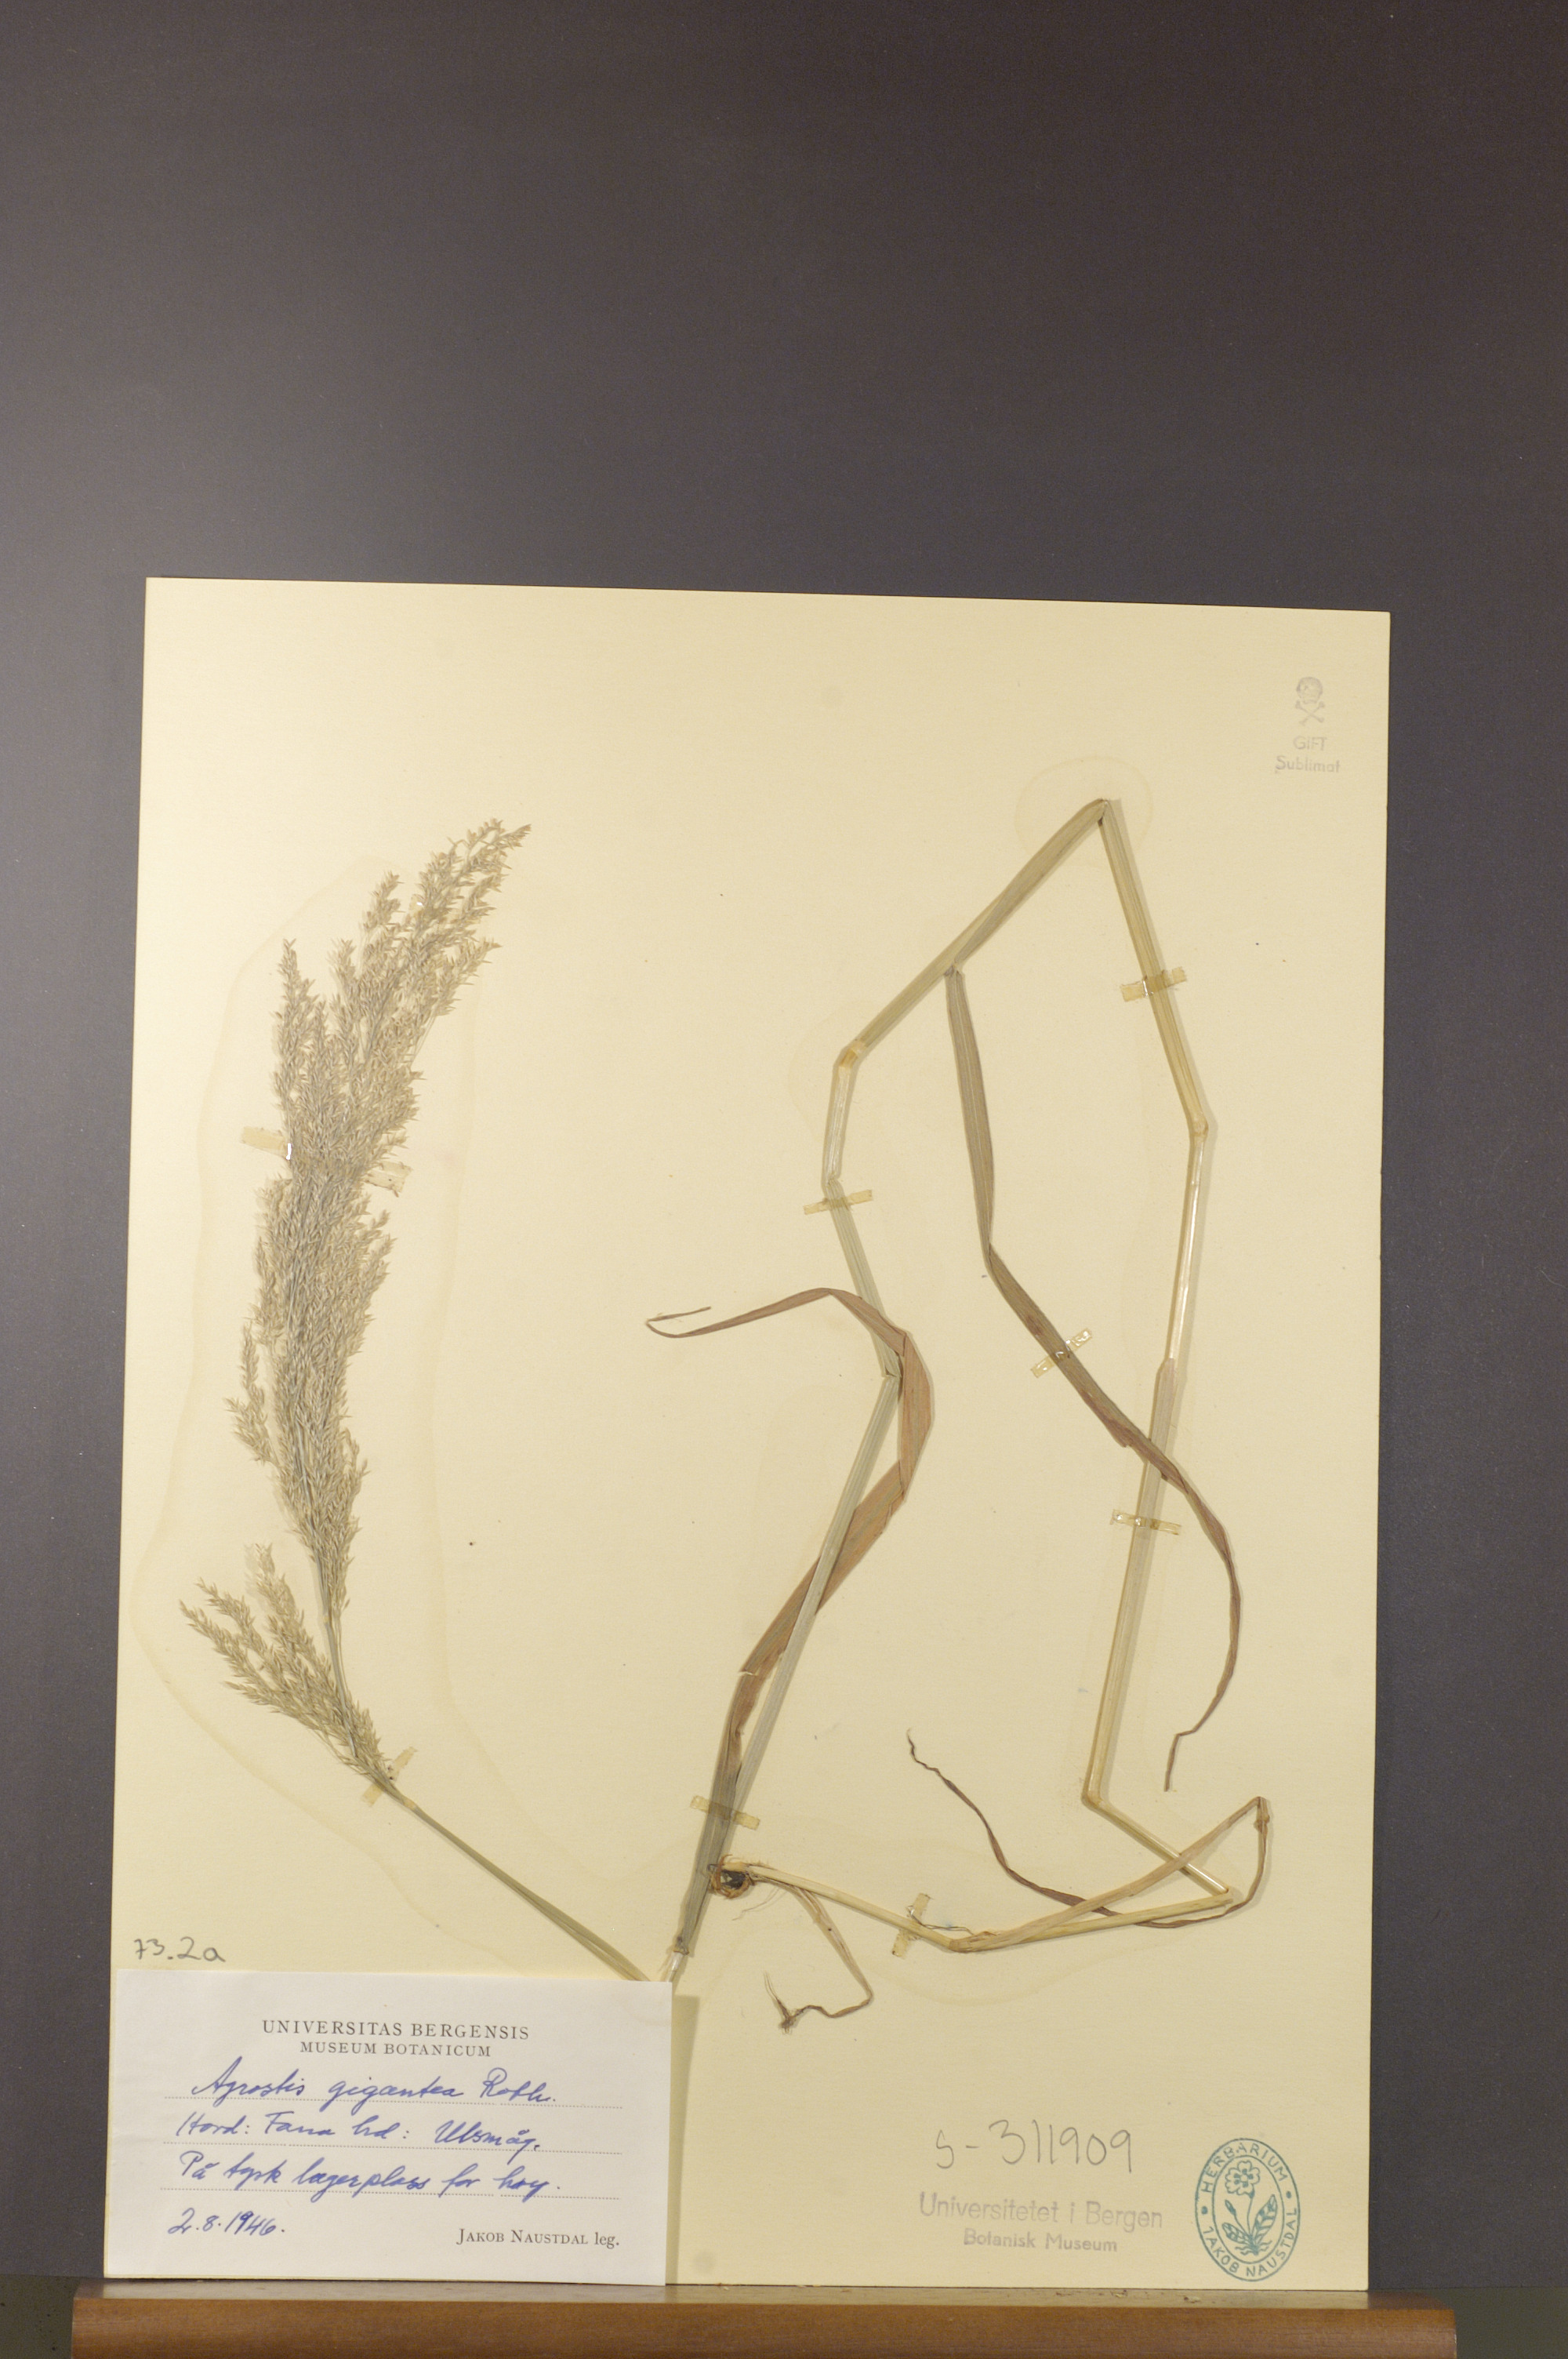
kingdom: Plantae
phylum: Tracheophyta
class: Liliopsida
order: Poales
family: Poaceae
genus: Agrostis
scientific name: Agrostis gigantea
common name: Black bent
